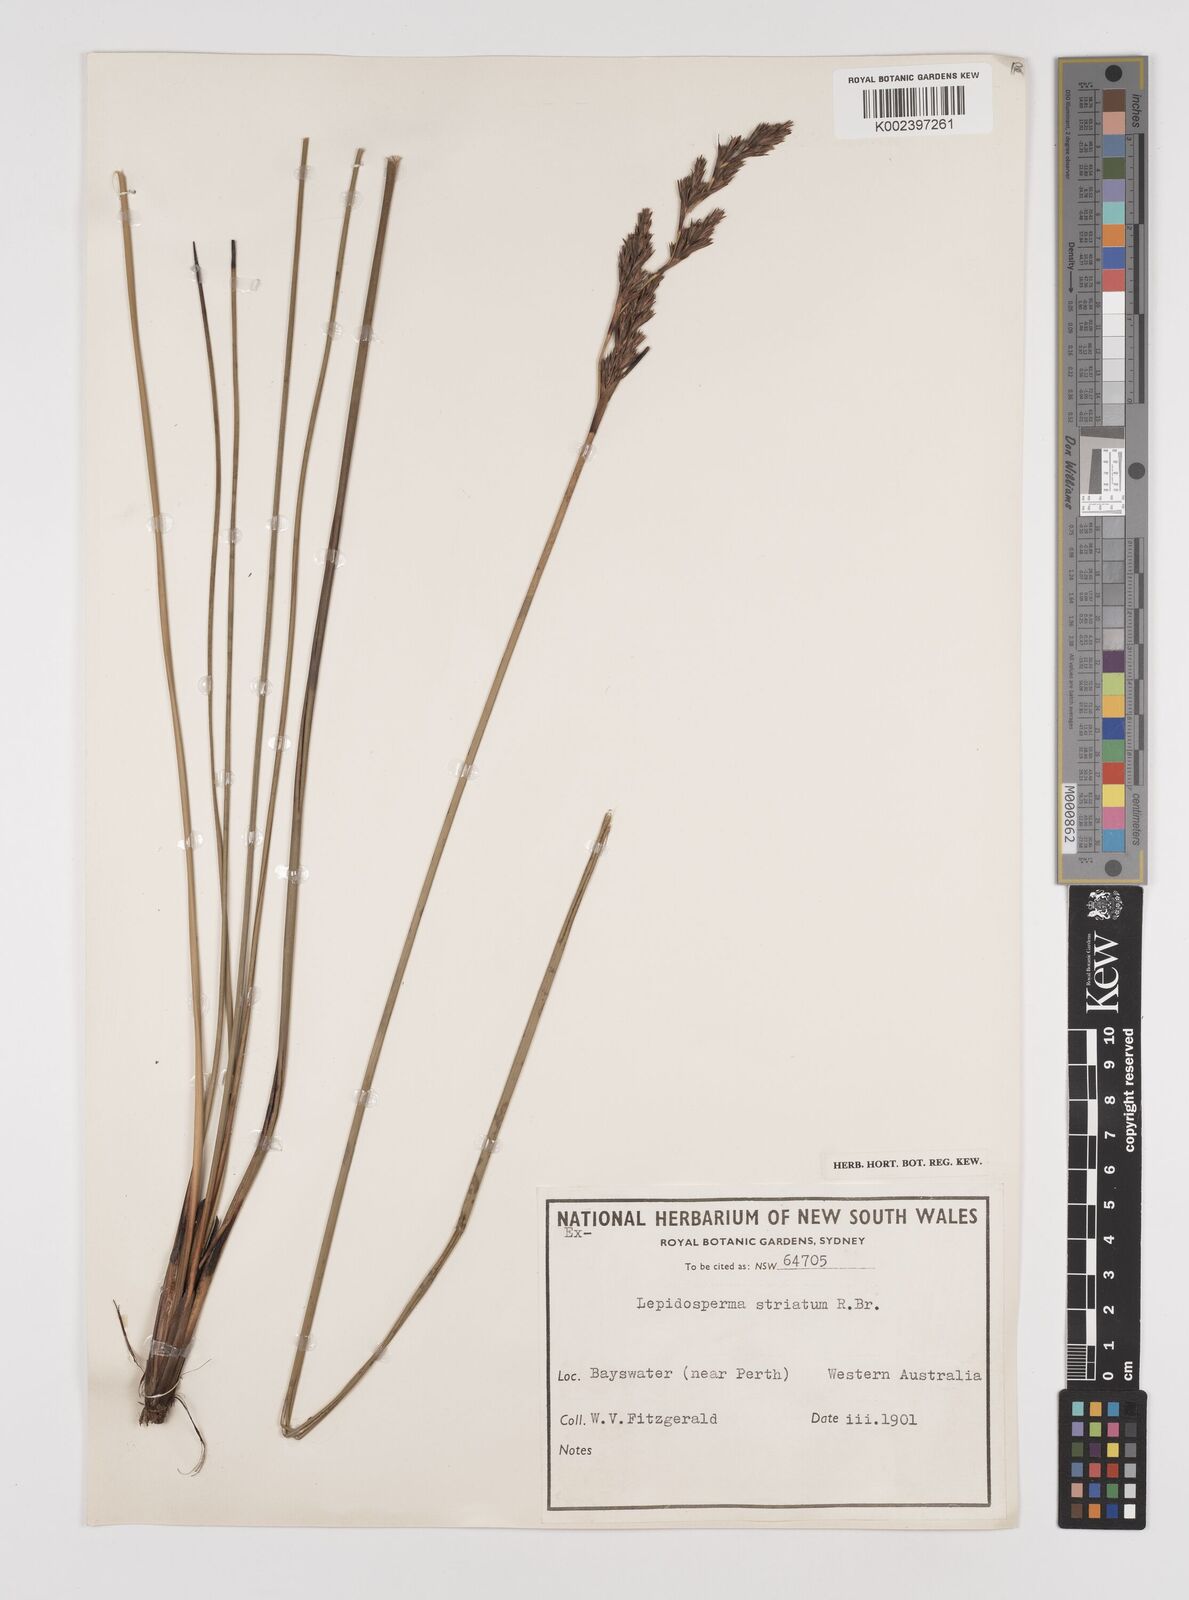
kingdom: Plantae
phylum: Tracheophyta
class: Liliopsida
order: Poales
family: Cyperaceae
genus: Lepidosperma
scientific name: Lepidosperma striatum
